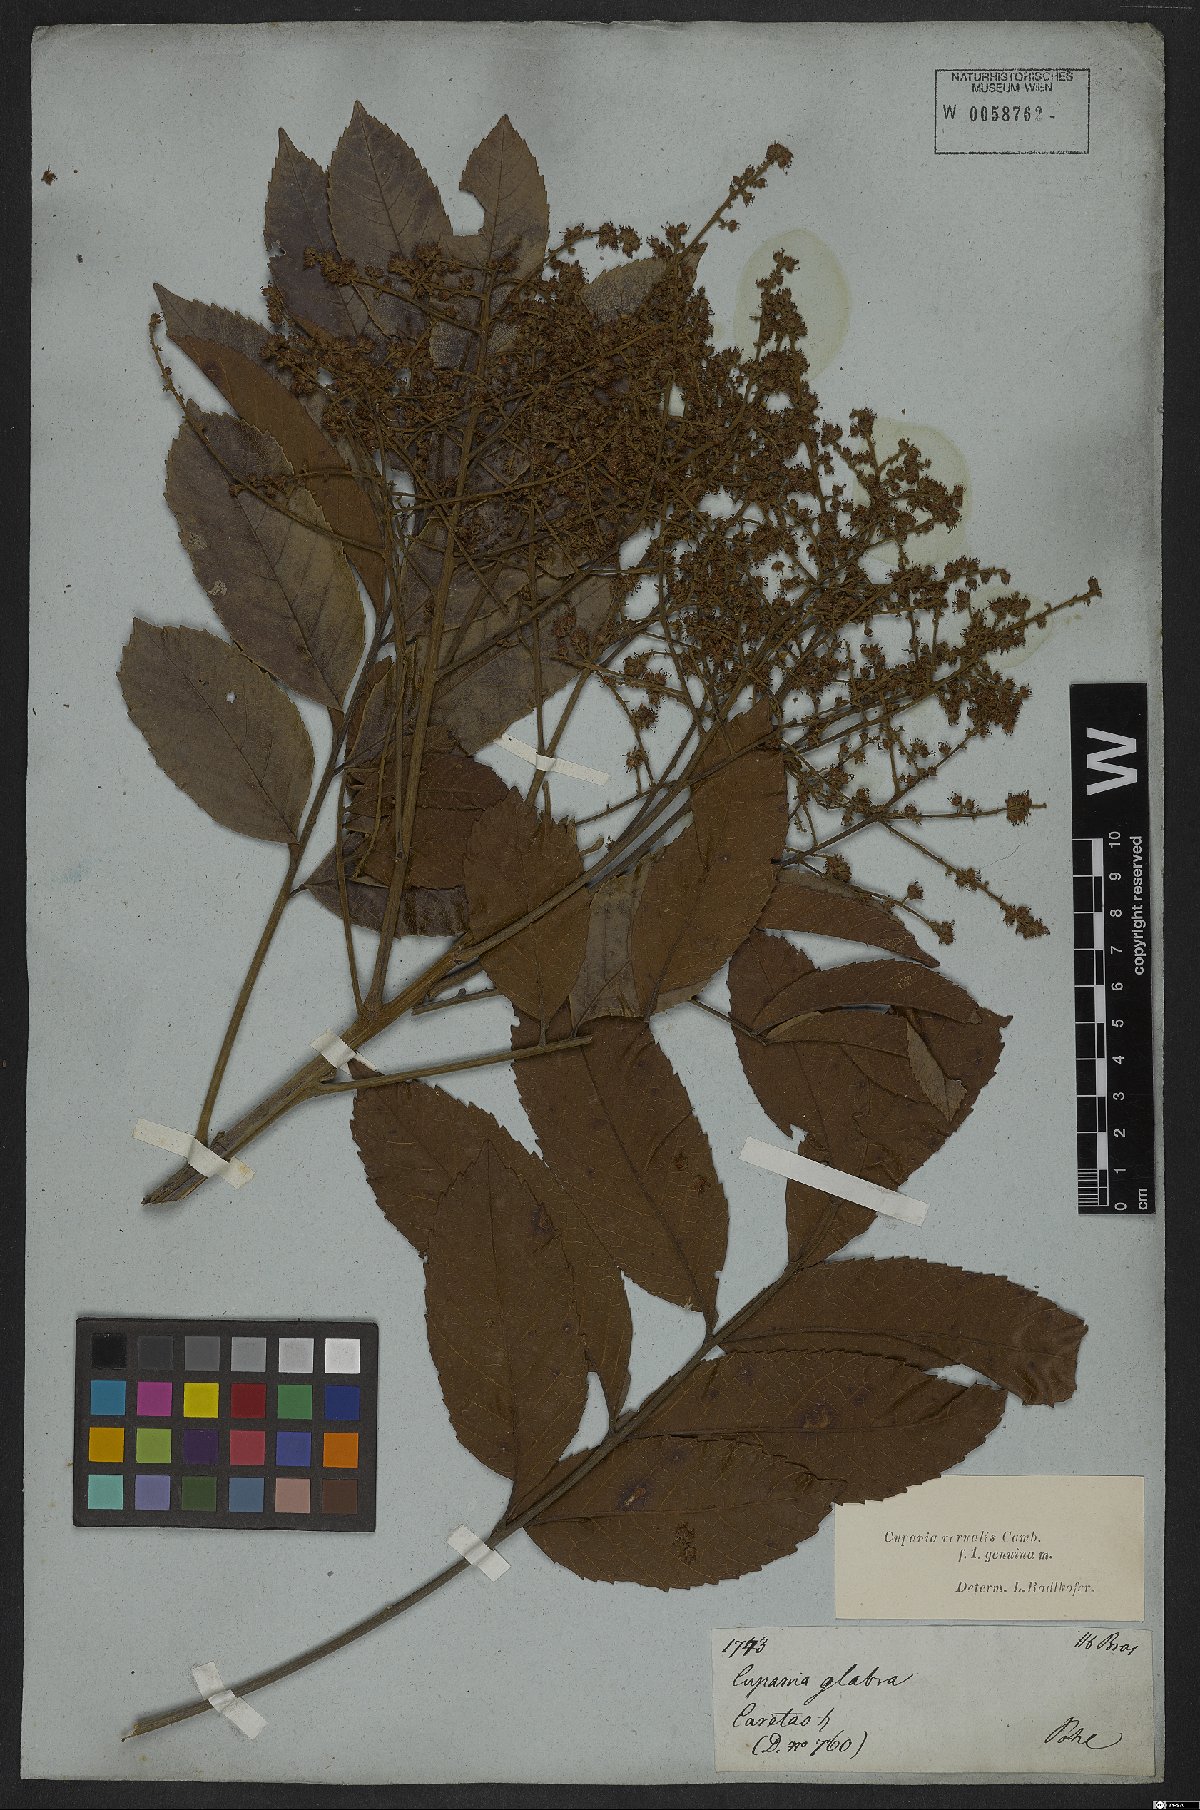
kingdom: Plantae
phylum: Tracheophyta
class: Magnoliopsida
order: Sapindales
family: Sapindaceae
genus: Cupania
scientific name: Cupania vernalis
